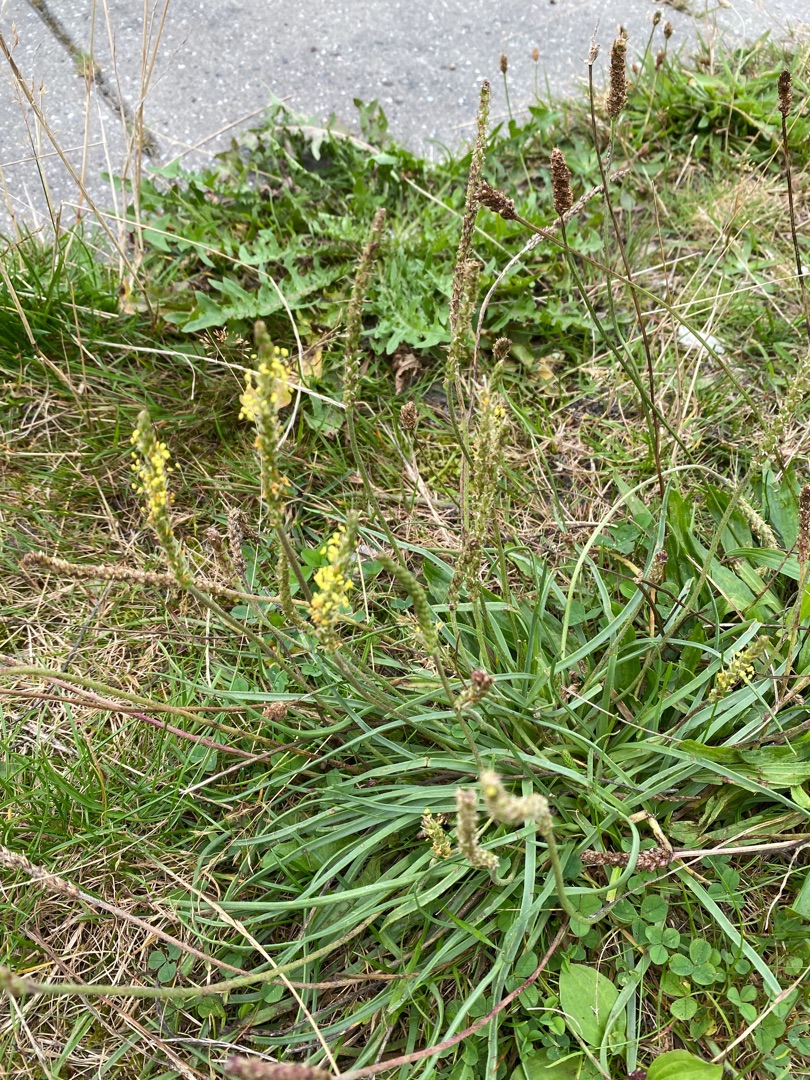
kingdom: Plantae
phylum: Tracheophyta
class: Magnoliopsida
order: Lamiales
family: Plantaginaceae
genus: Plantago
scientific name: Plantago maritima
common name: Strand-vejbred
